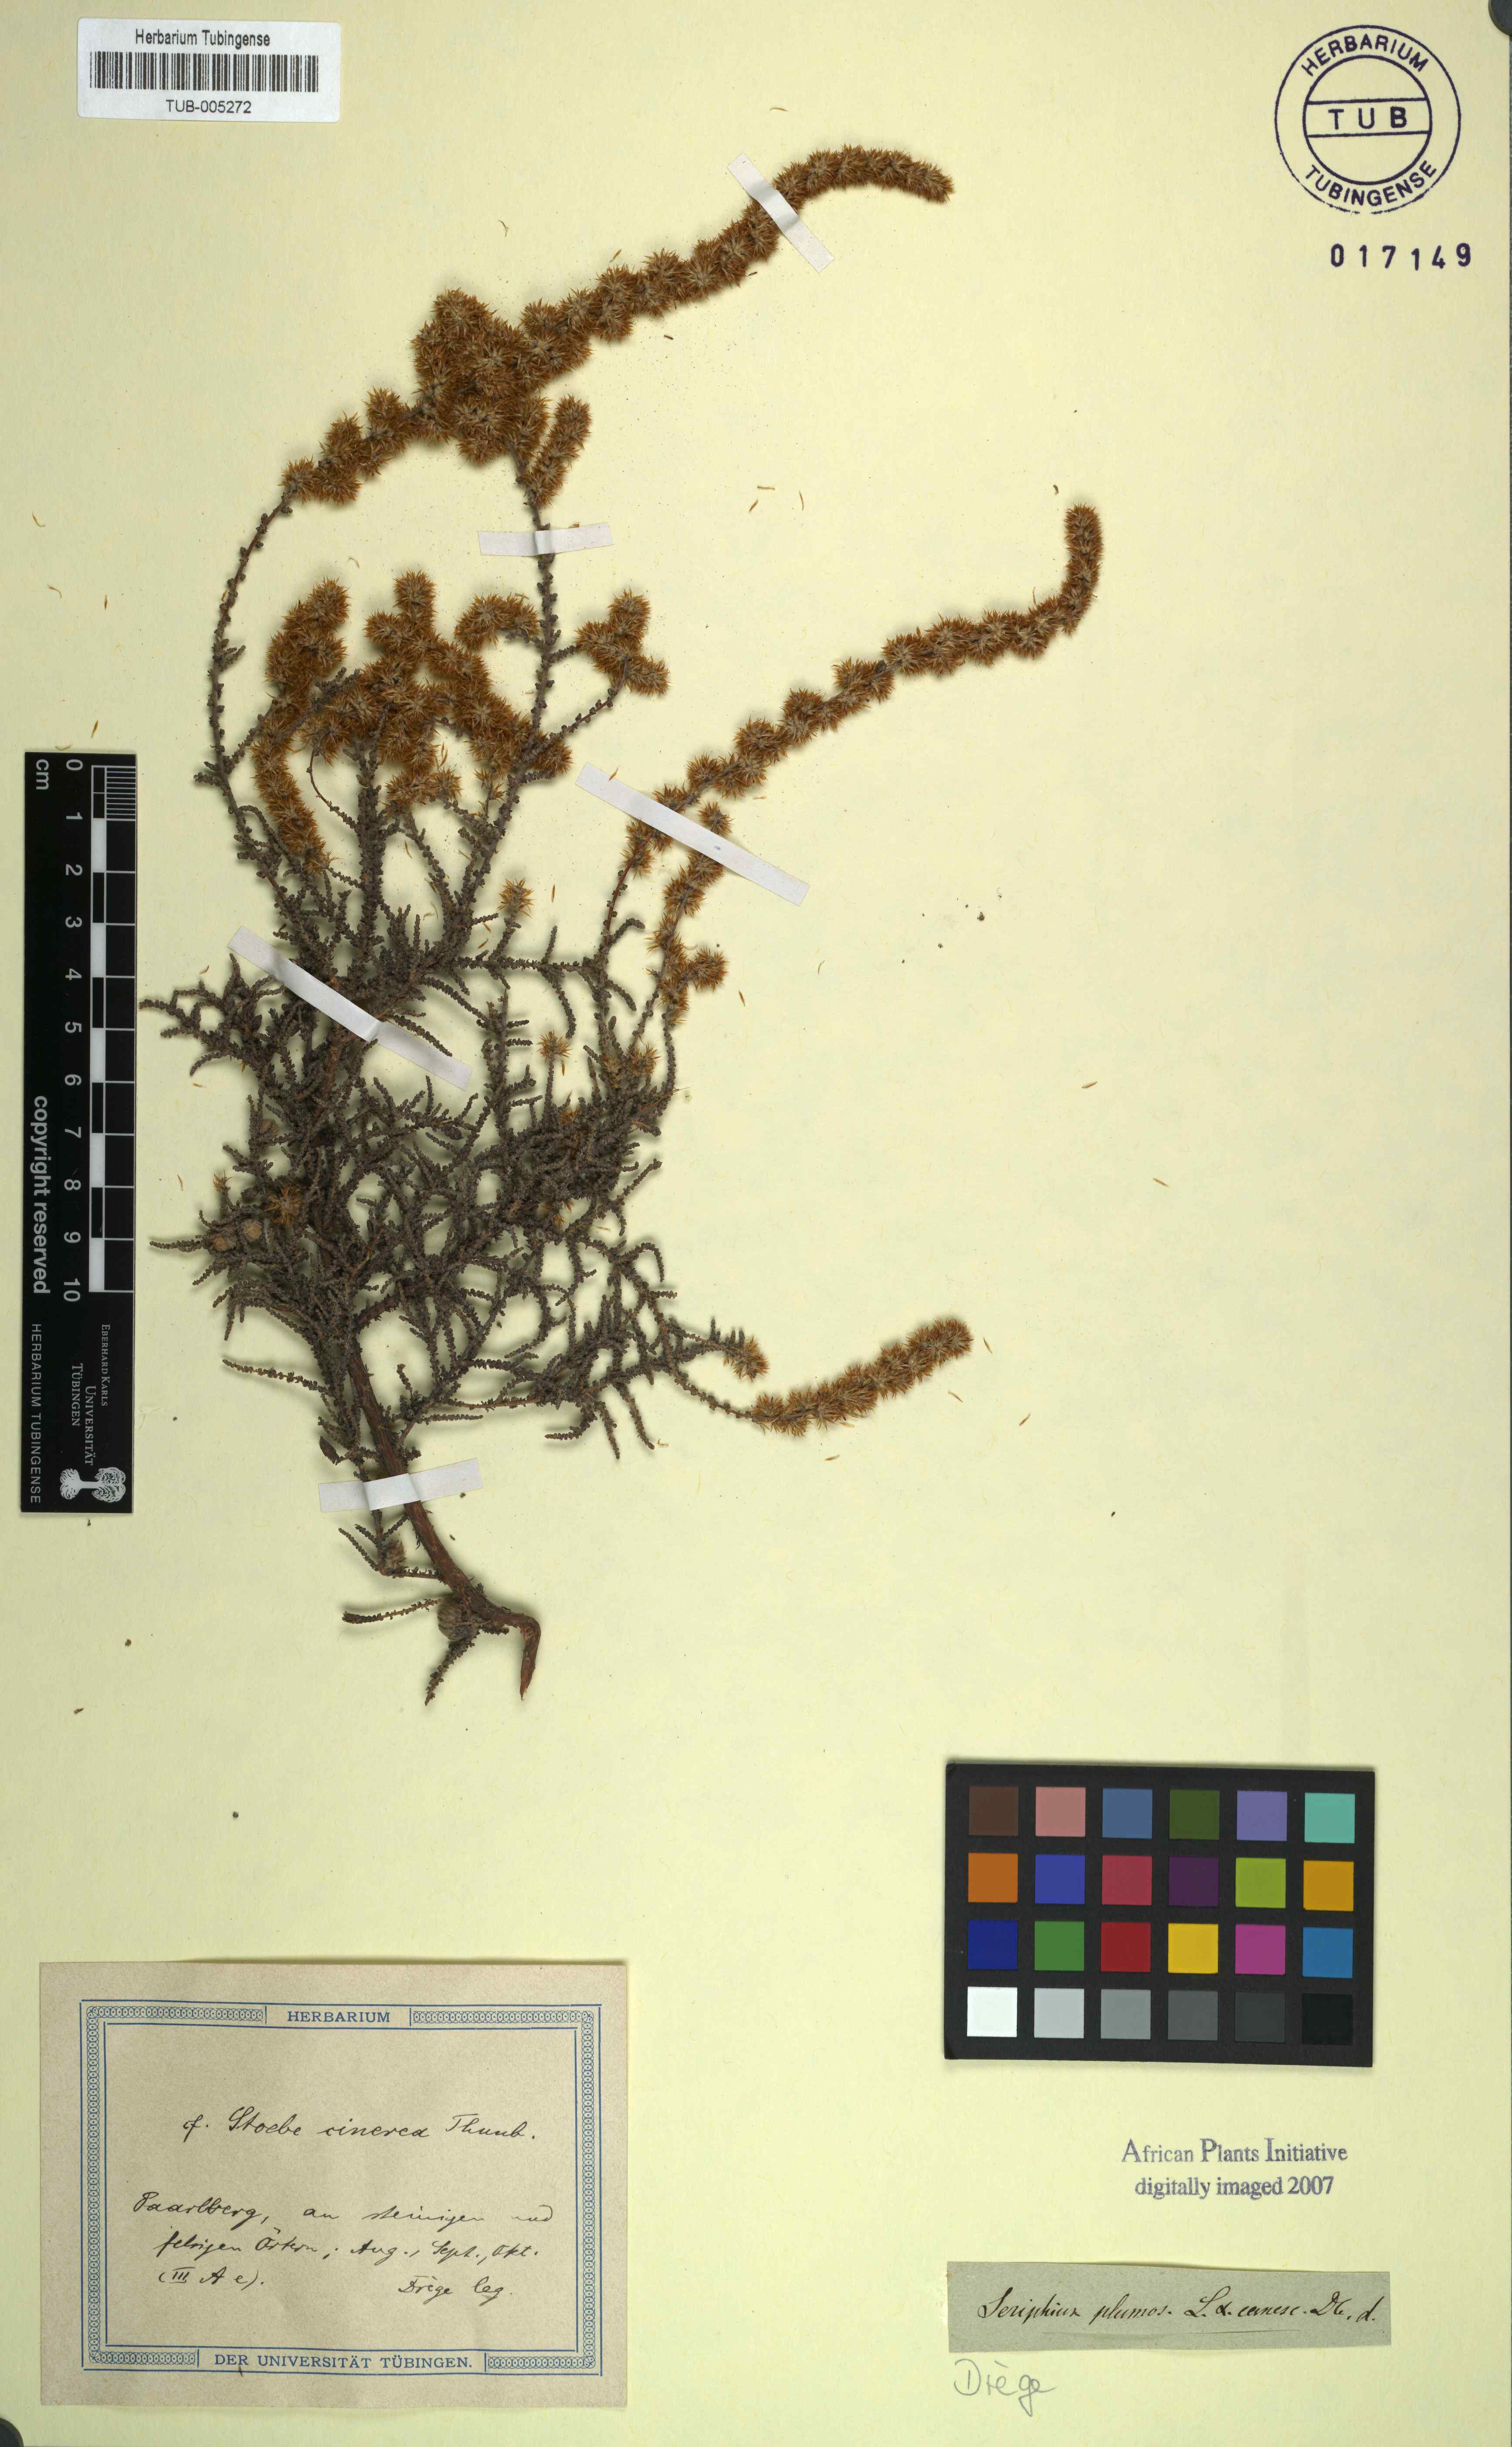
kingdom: Plantae
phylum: Tracheophyta
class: Magnoliopsida
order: Asterales
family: Asteraceae
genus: Seriphium
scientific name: Seriphium cinereum
